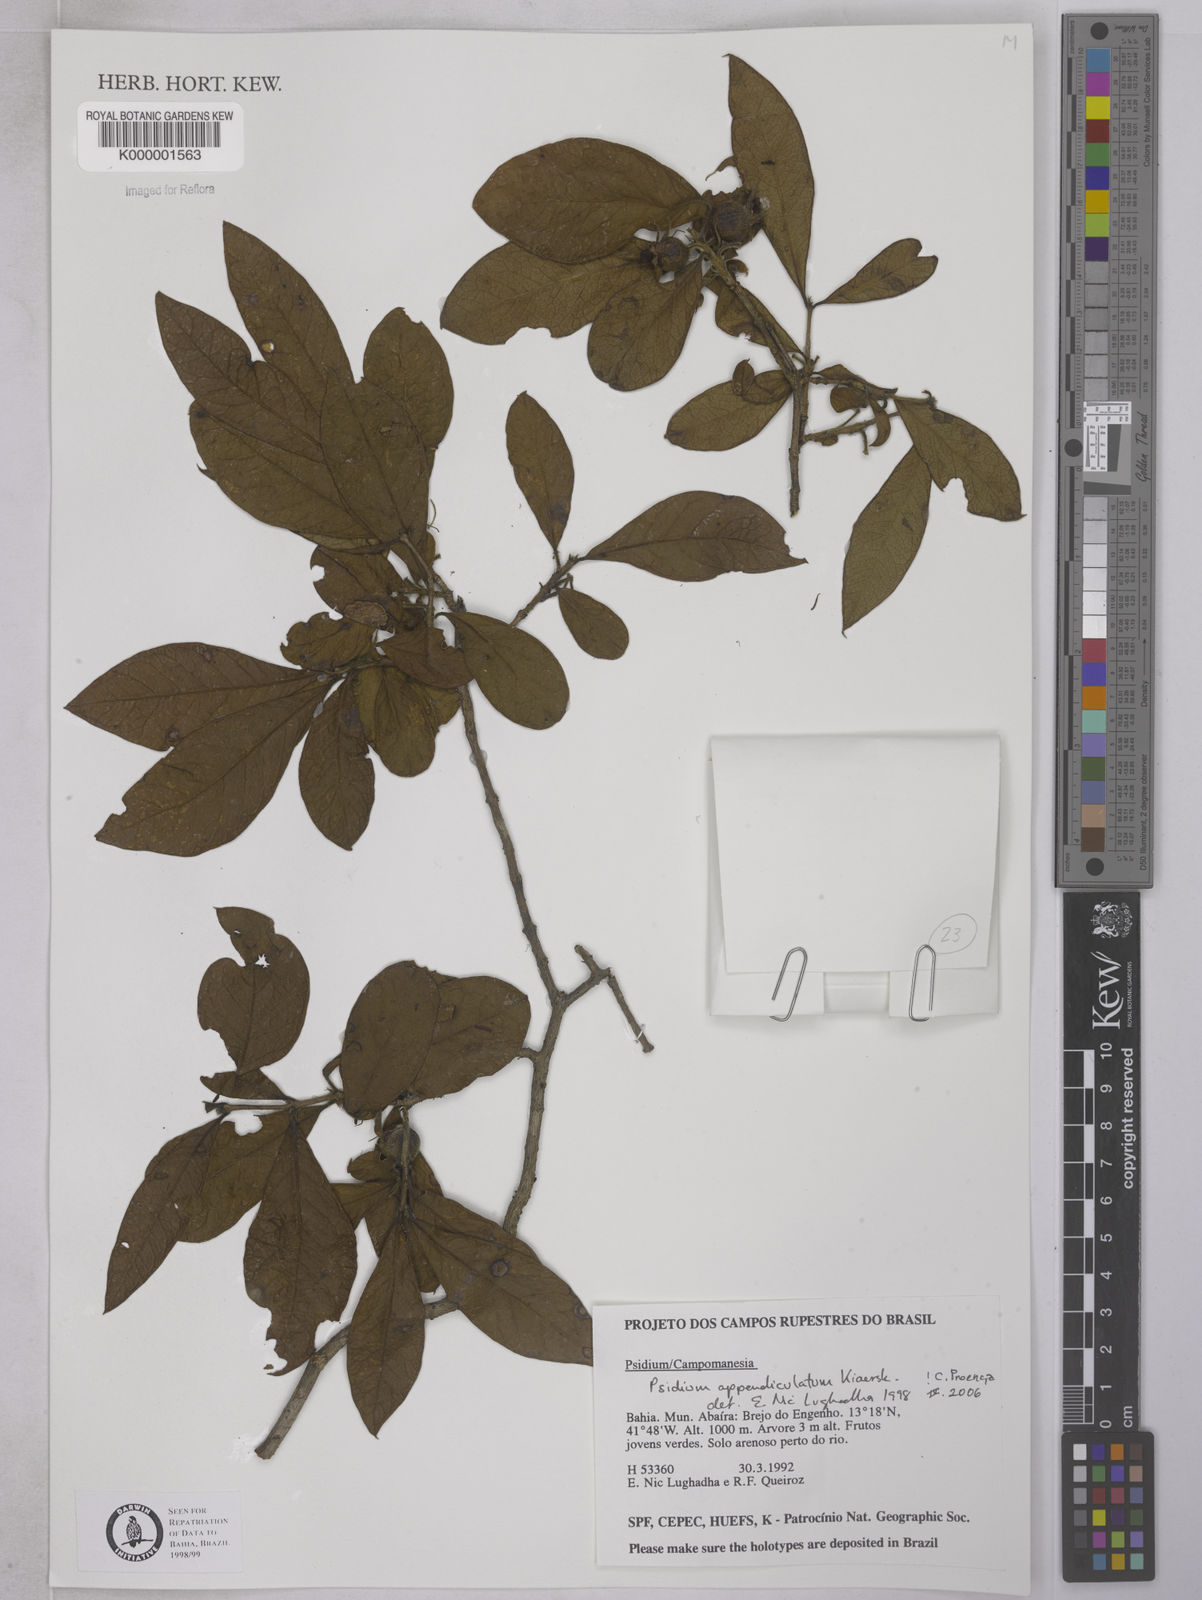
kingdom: Plantae
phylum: Tracheophyta
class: Magnoliopsida
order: Myrtales
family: Myrtaceae
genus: Psidium
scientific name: Psidium appendiculatum
